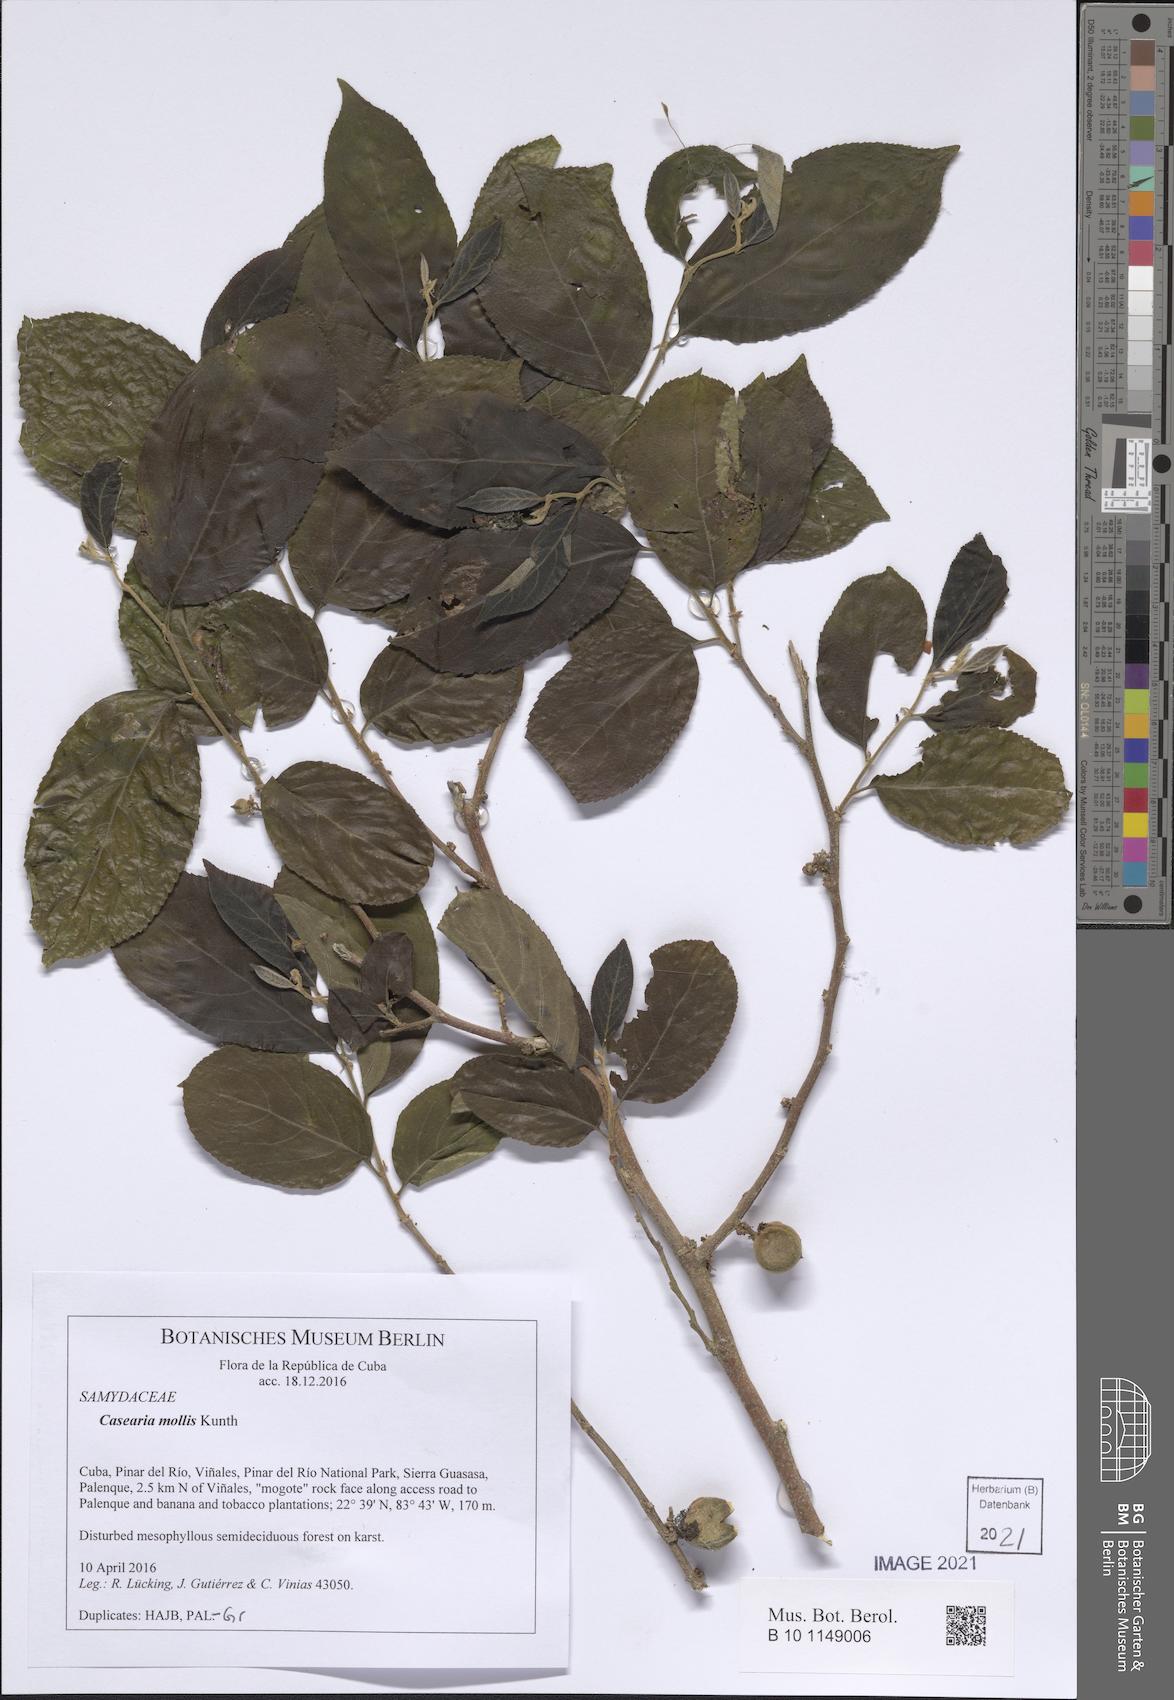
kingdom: Plantae
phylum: Tracheophyta
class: Magnoliopsida
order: Malpighiales
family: Salicaceae
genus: Casearia
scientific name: Casearia mollis
